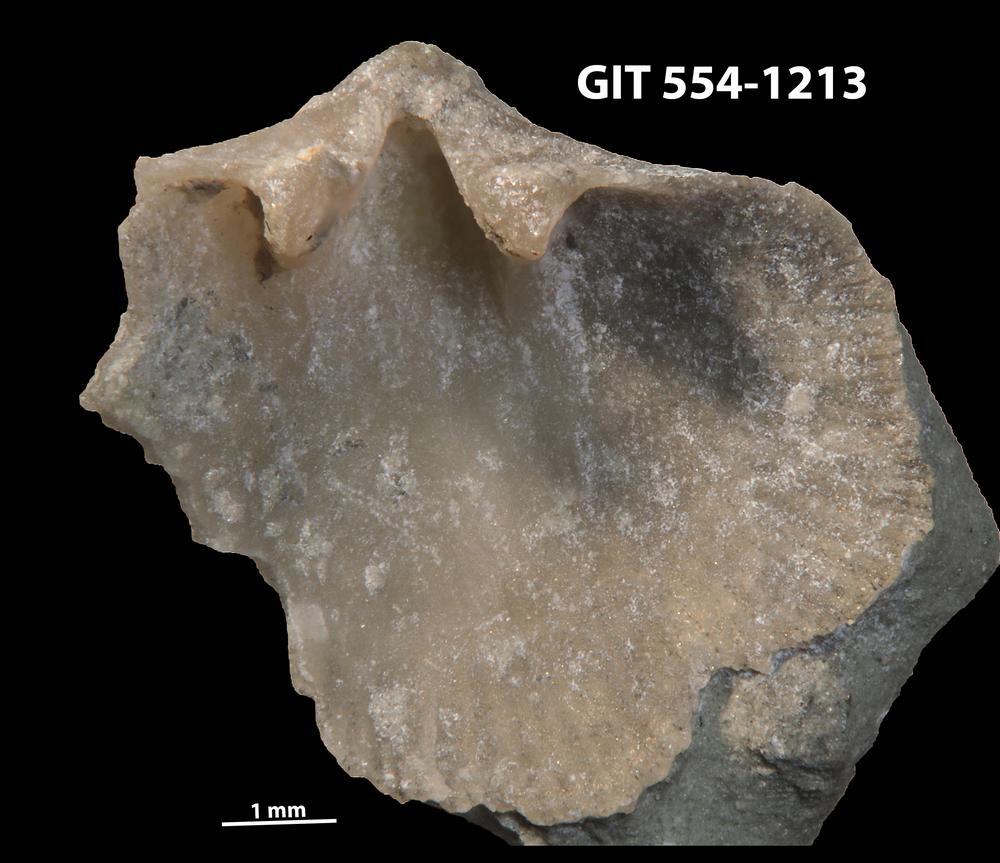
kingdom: Animalia
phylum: Brachiopoda
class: Rhynchonellata
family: Dalmanellidae
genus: Isorthis
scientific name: Isorthis parvulus
